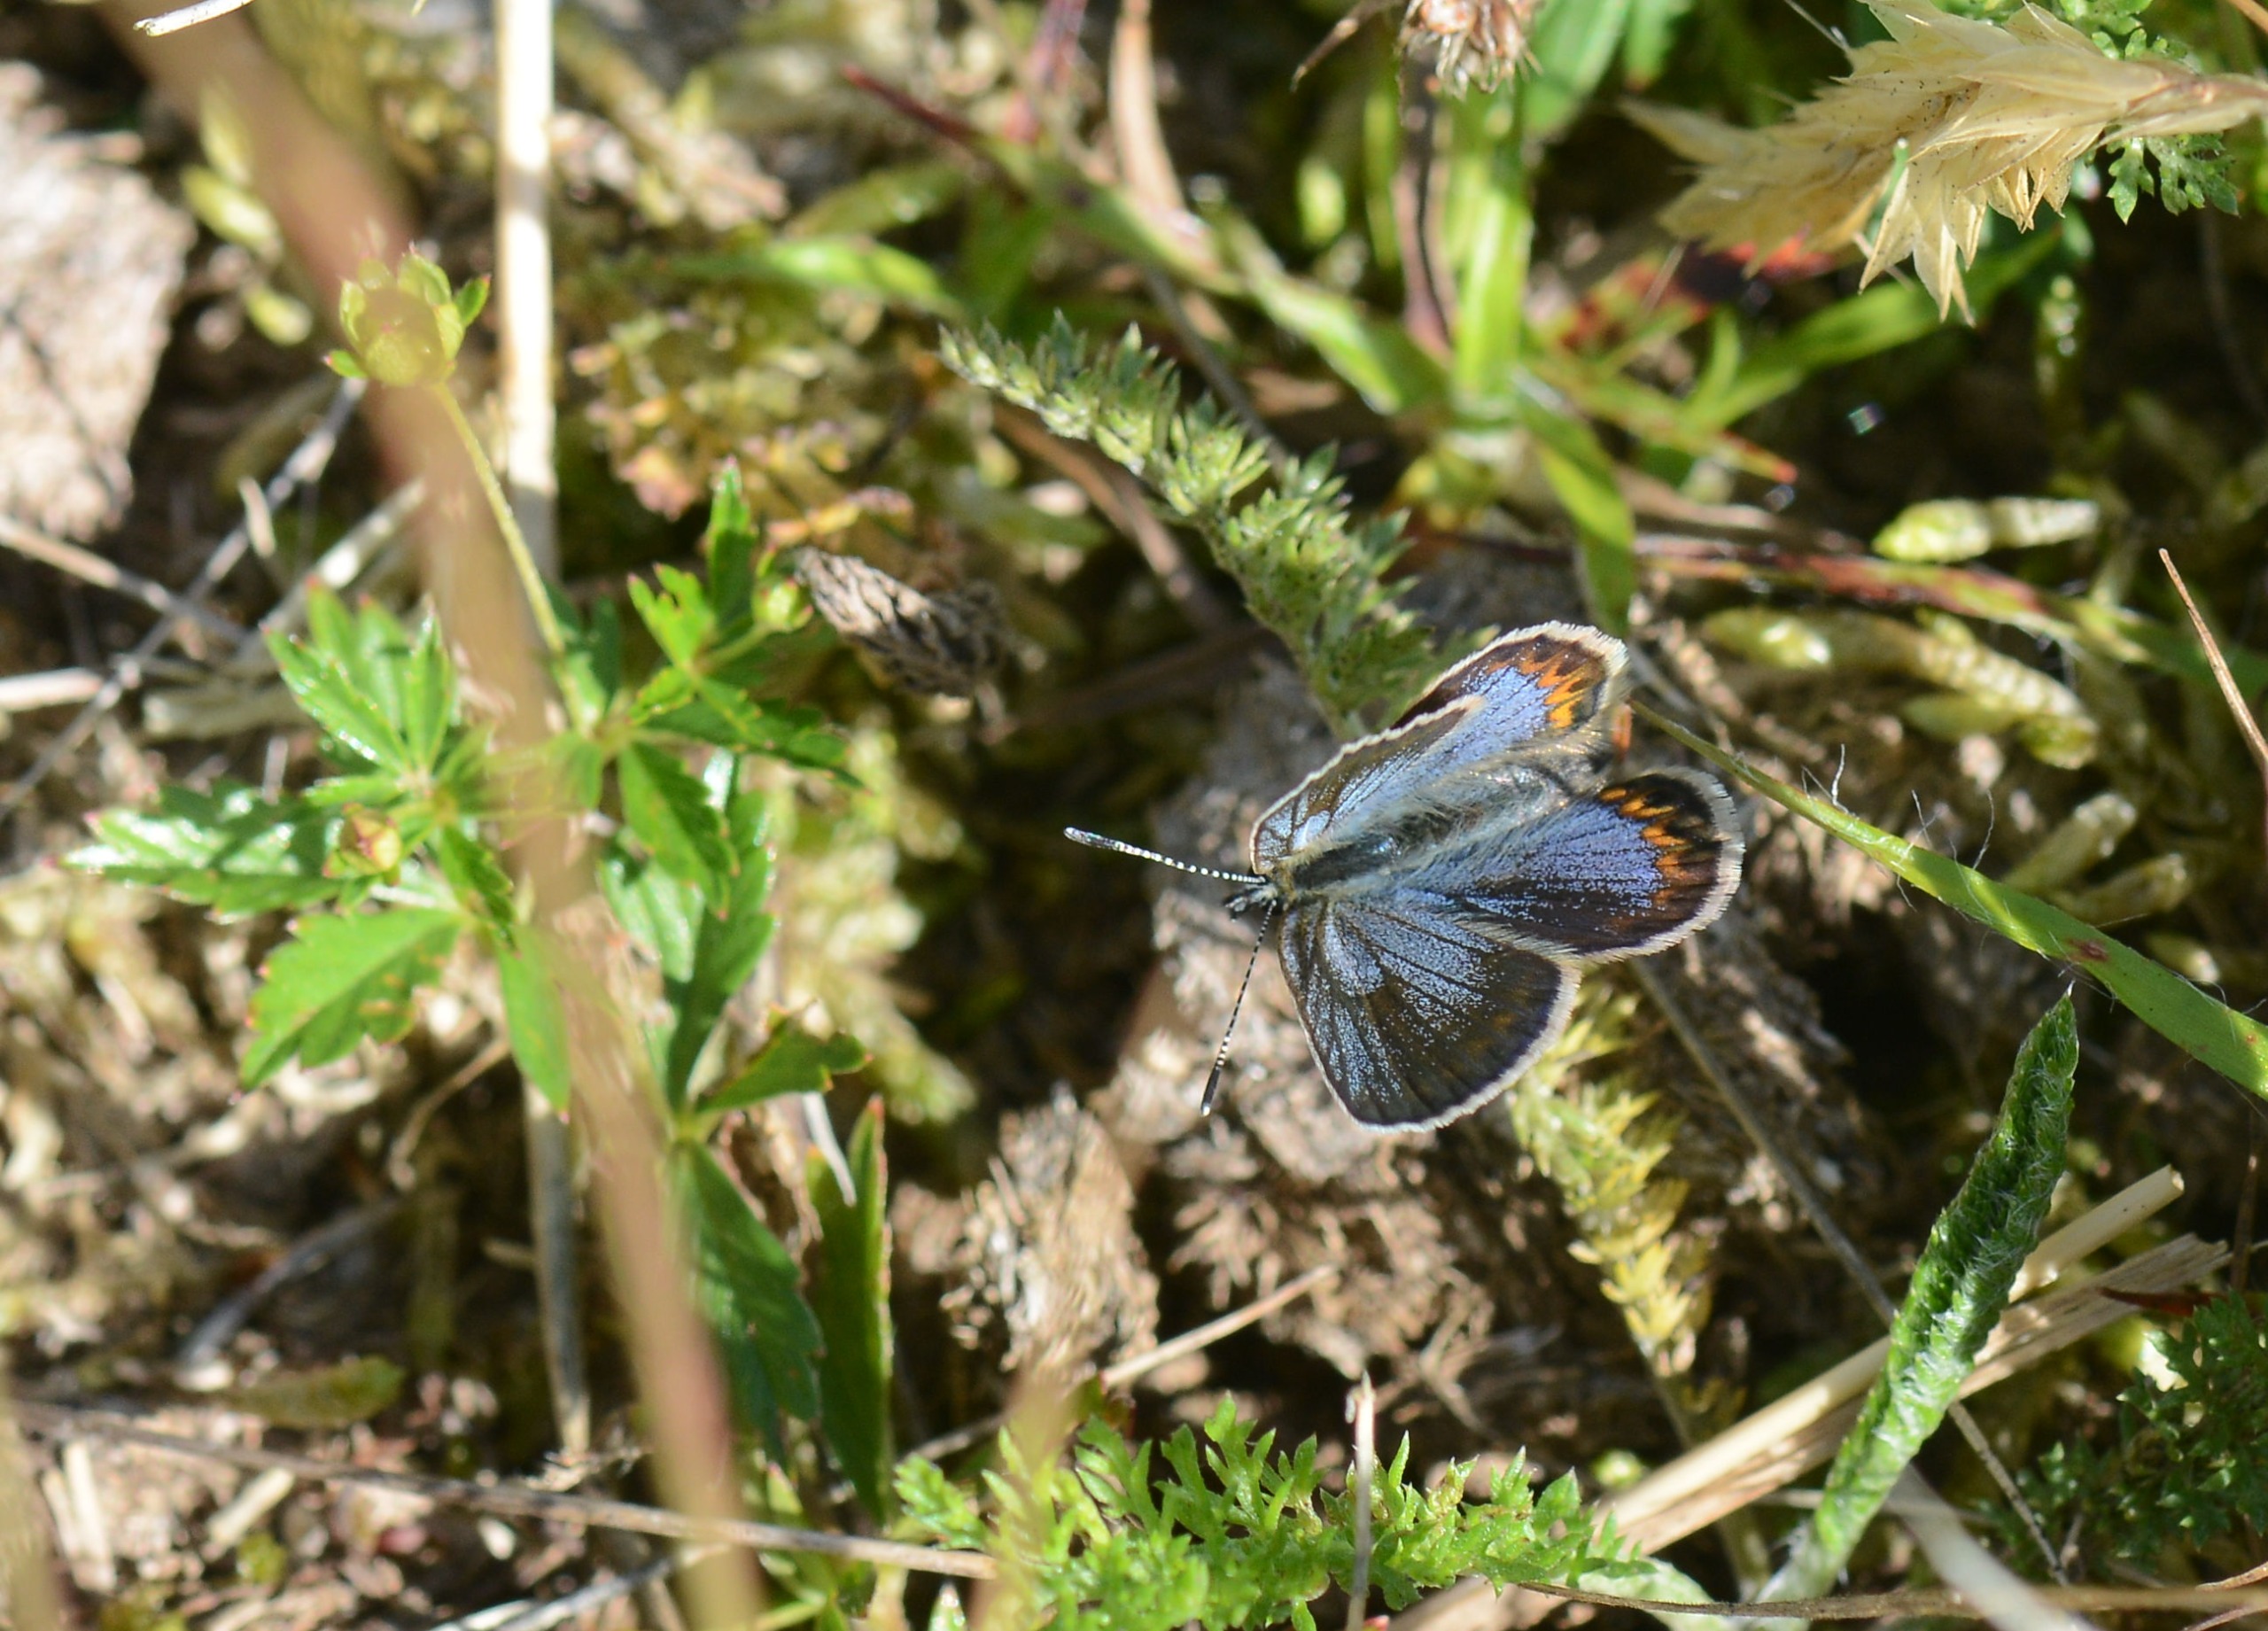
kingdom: Animalia
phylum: Arthropoda
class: Insecta
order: Lepidoptera
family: Lycaenidae
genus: Lycaeides
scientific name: Lycaeides idas
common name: Foranderlig blåfugl
